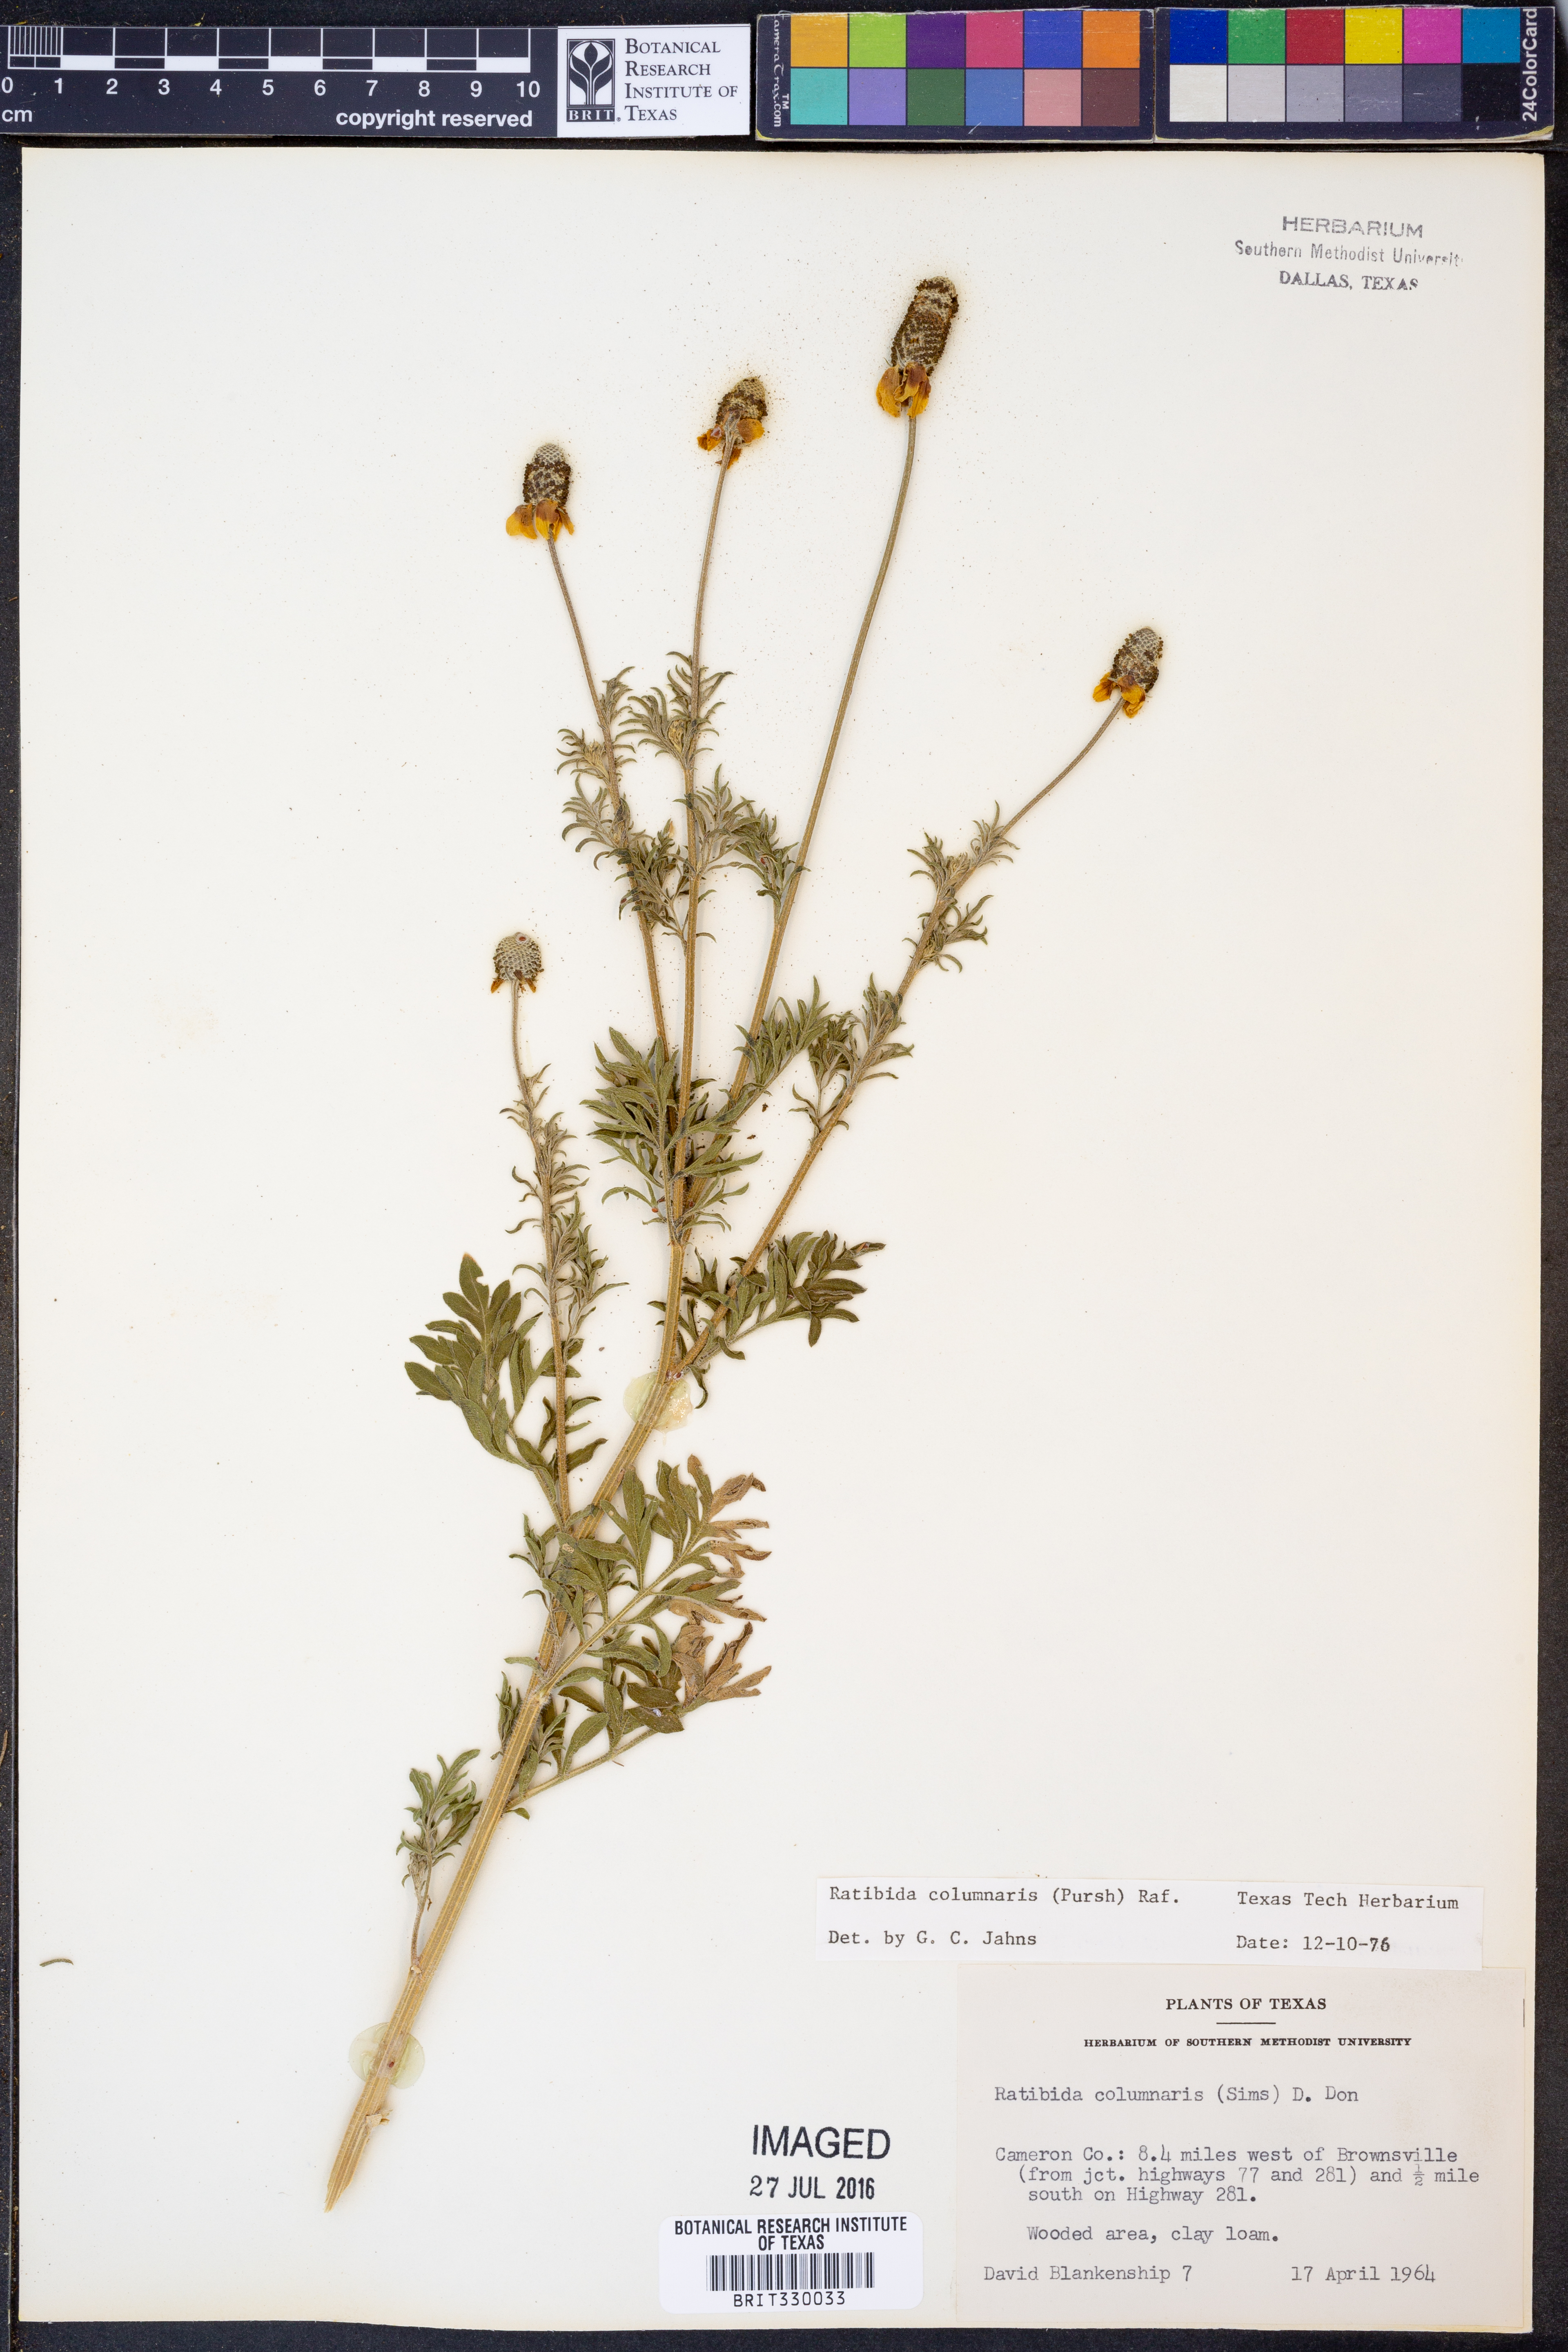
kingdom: Plantae
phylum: Tracheophyta
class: Magnoliopsida
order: Asterales
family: Asteraceae
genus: Ratibida
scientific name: Ratibida columnifera
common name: Prairie coneflower
